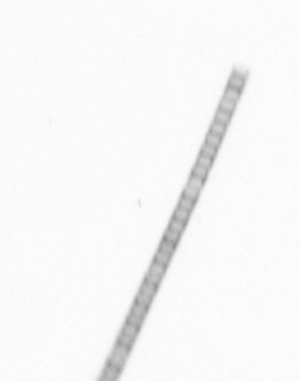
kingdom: Chromista
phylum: Ochrophyta
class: Bacillariophyceae
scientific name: Bacillariophyceae
